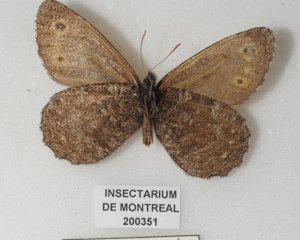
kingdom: Animalia
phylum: Arthropoda
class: Insecta
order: Lepidoptera
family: Nymphalidae
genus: Oeneis
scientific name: Oeneis jutta
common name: Jutta Arctic
